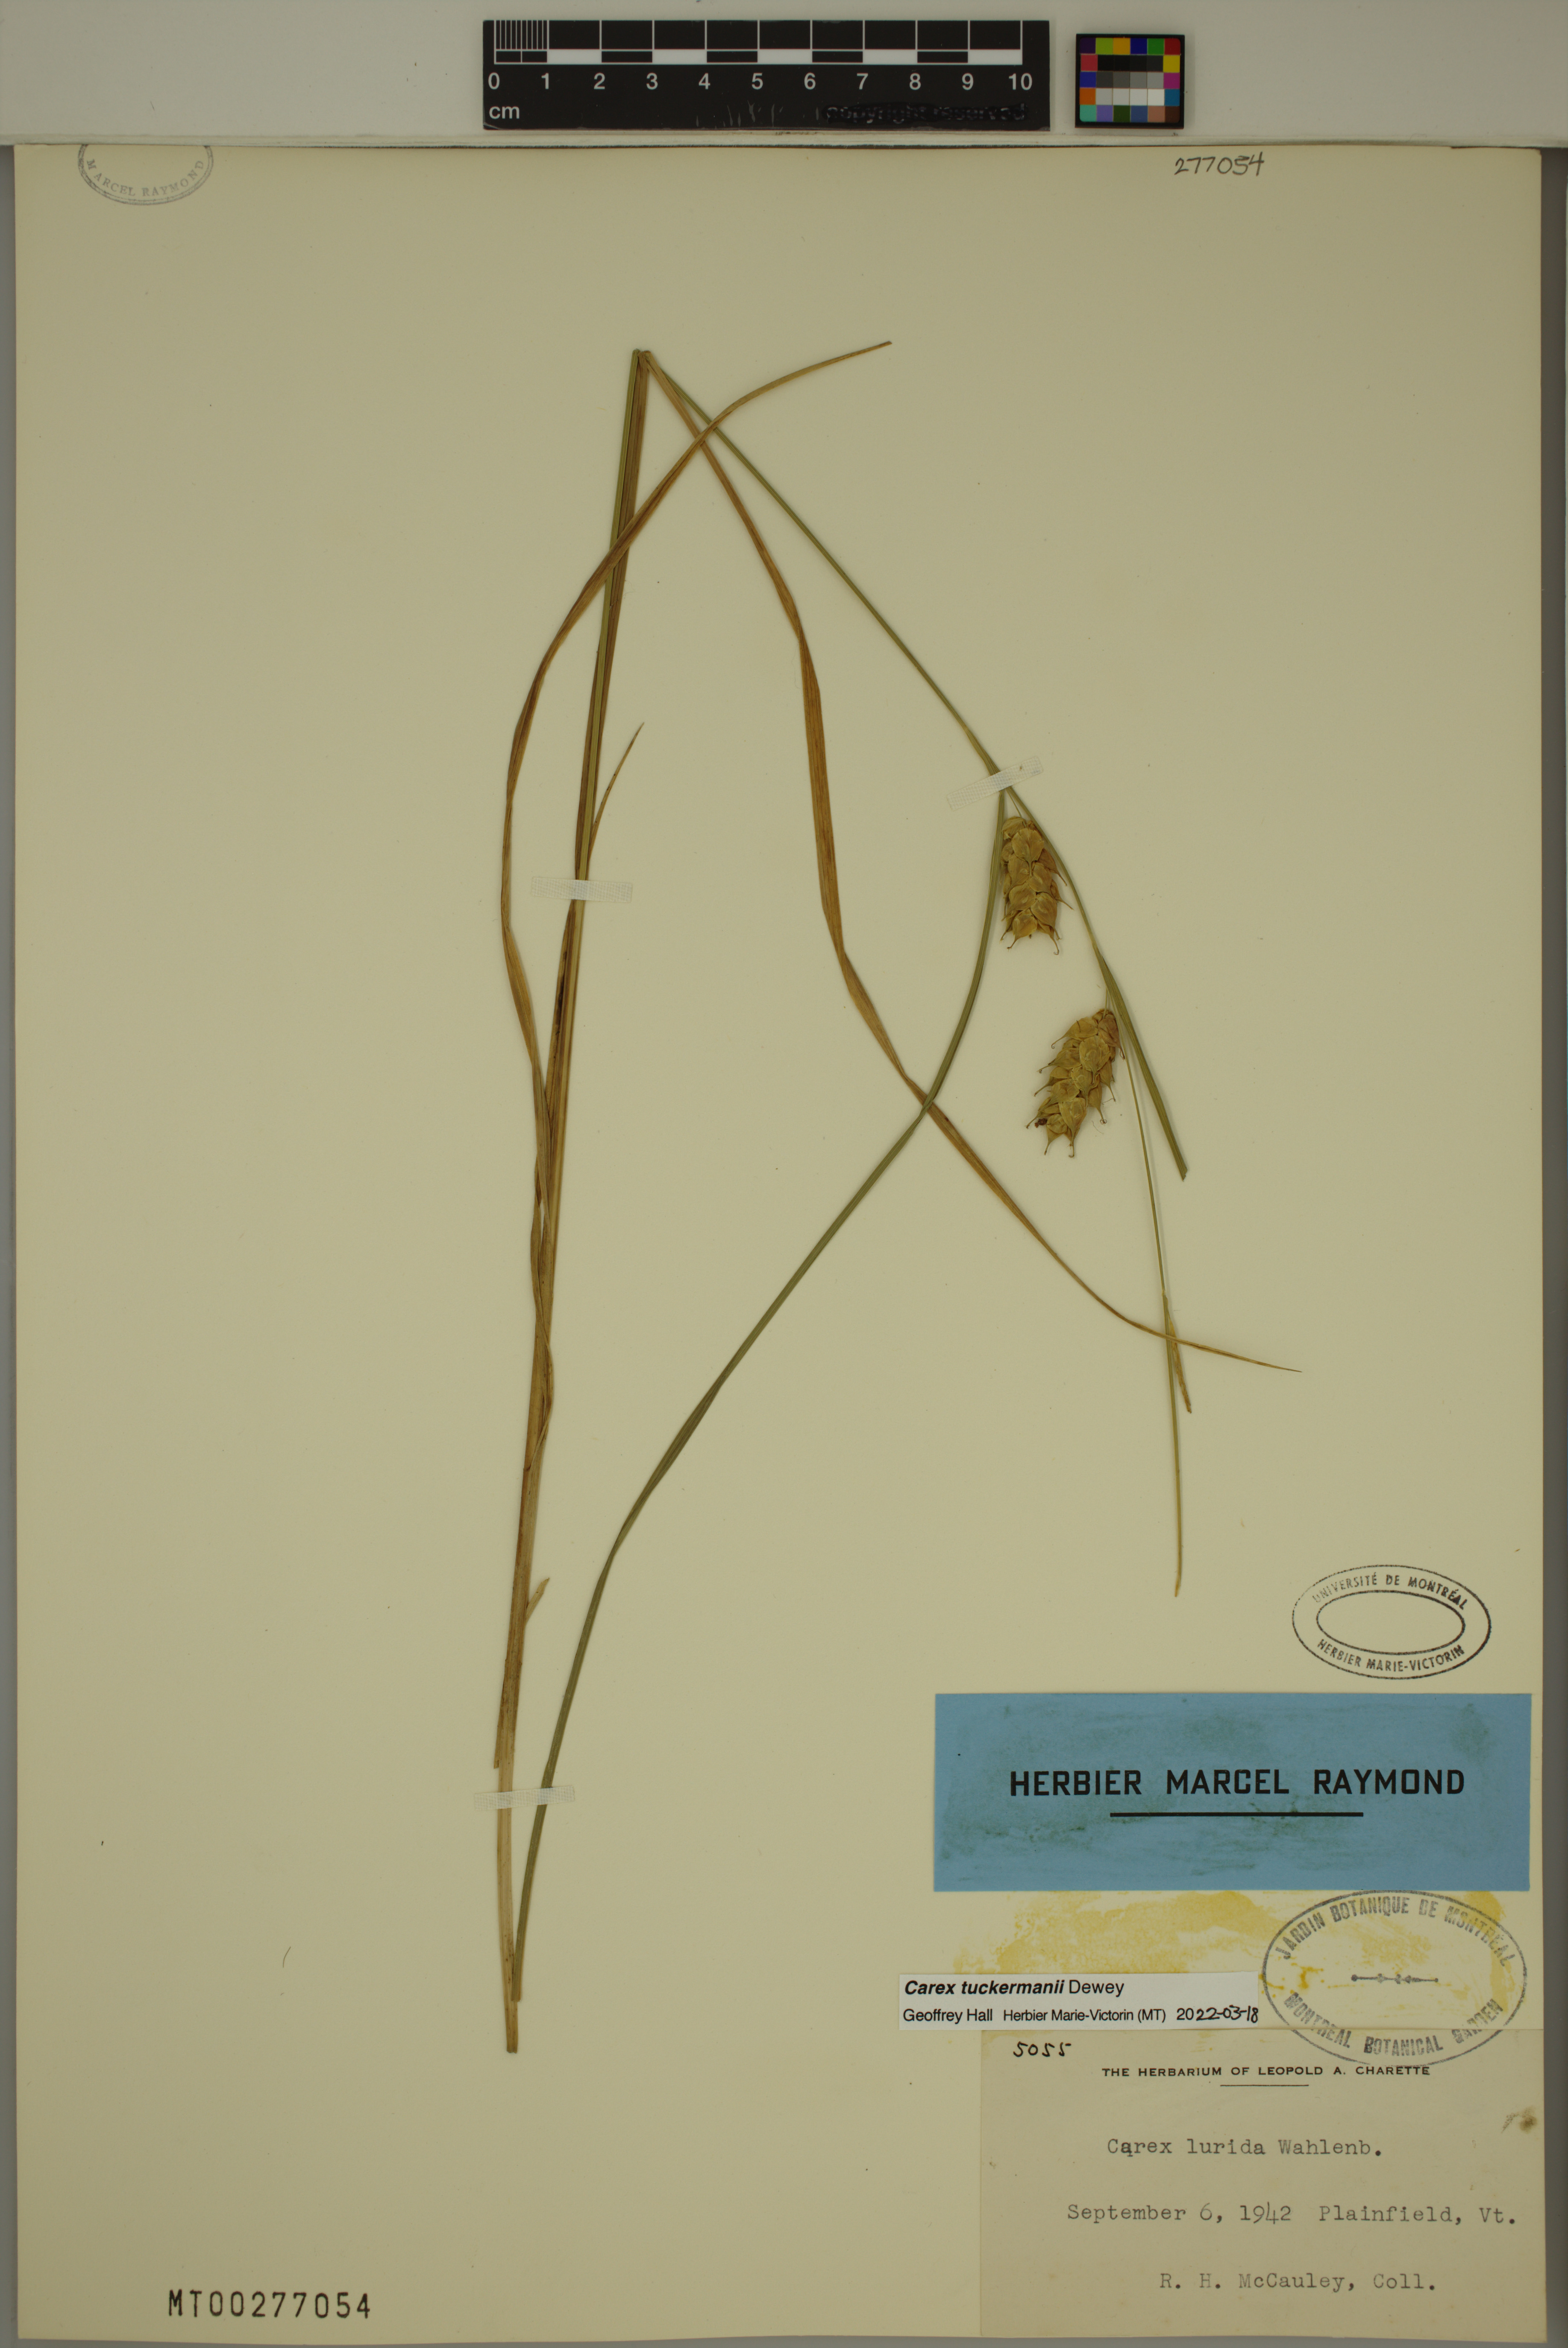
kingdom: Plantae
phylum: Tracheophyta
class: Liliopsida
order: Poales
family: Cyperaceae
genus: Carex
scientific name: Carex tuckermanii
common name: Tuckerman's sedge
